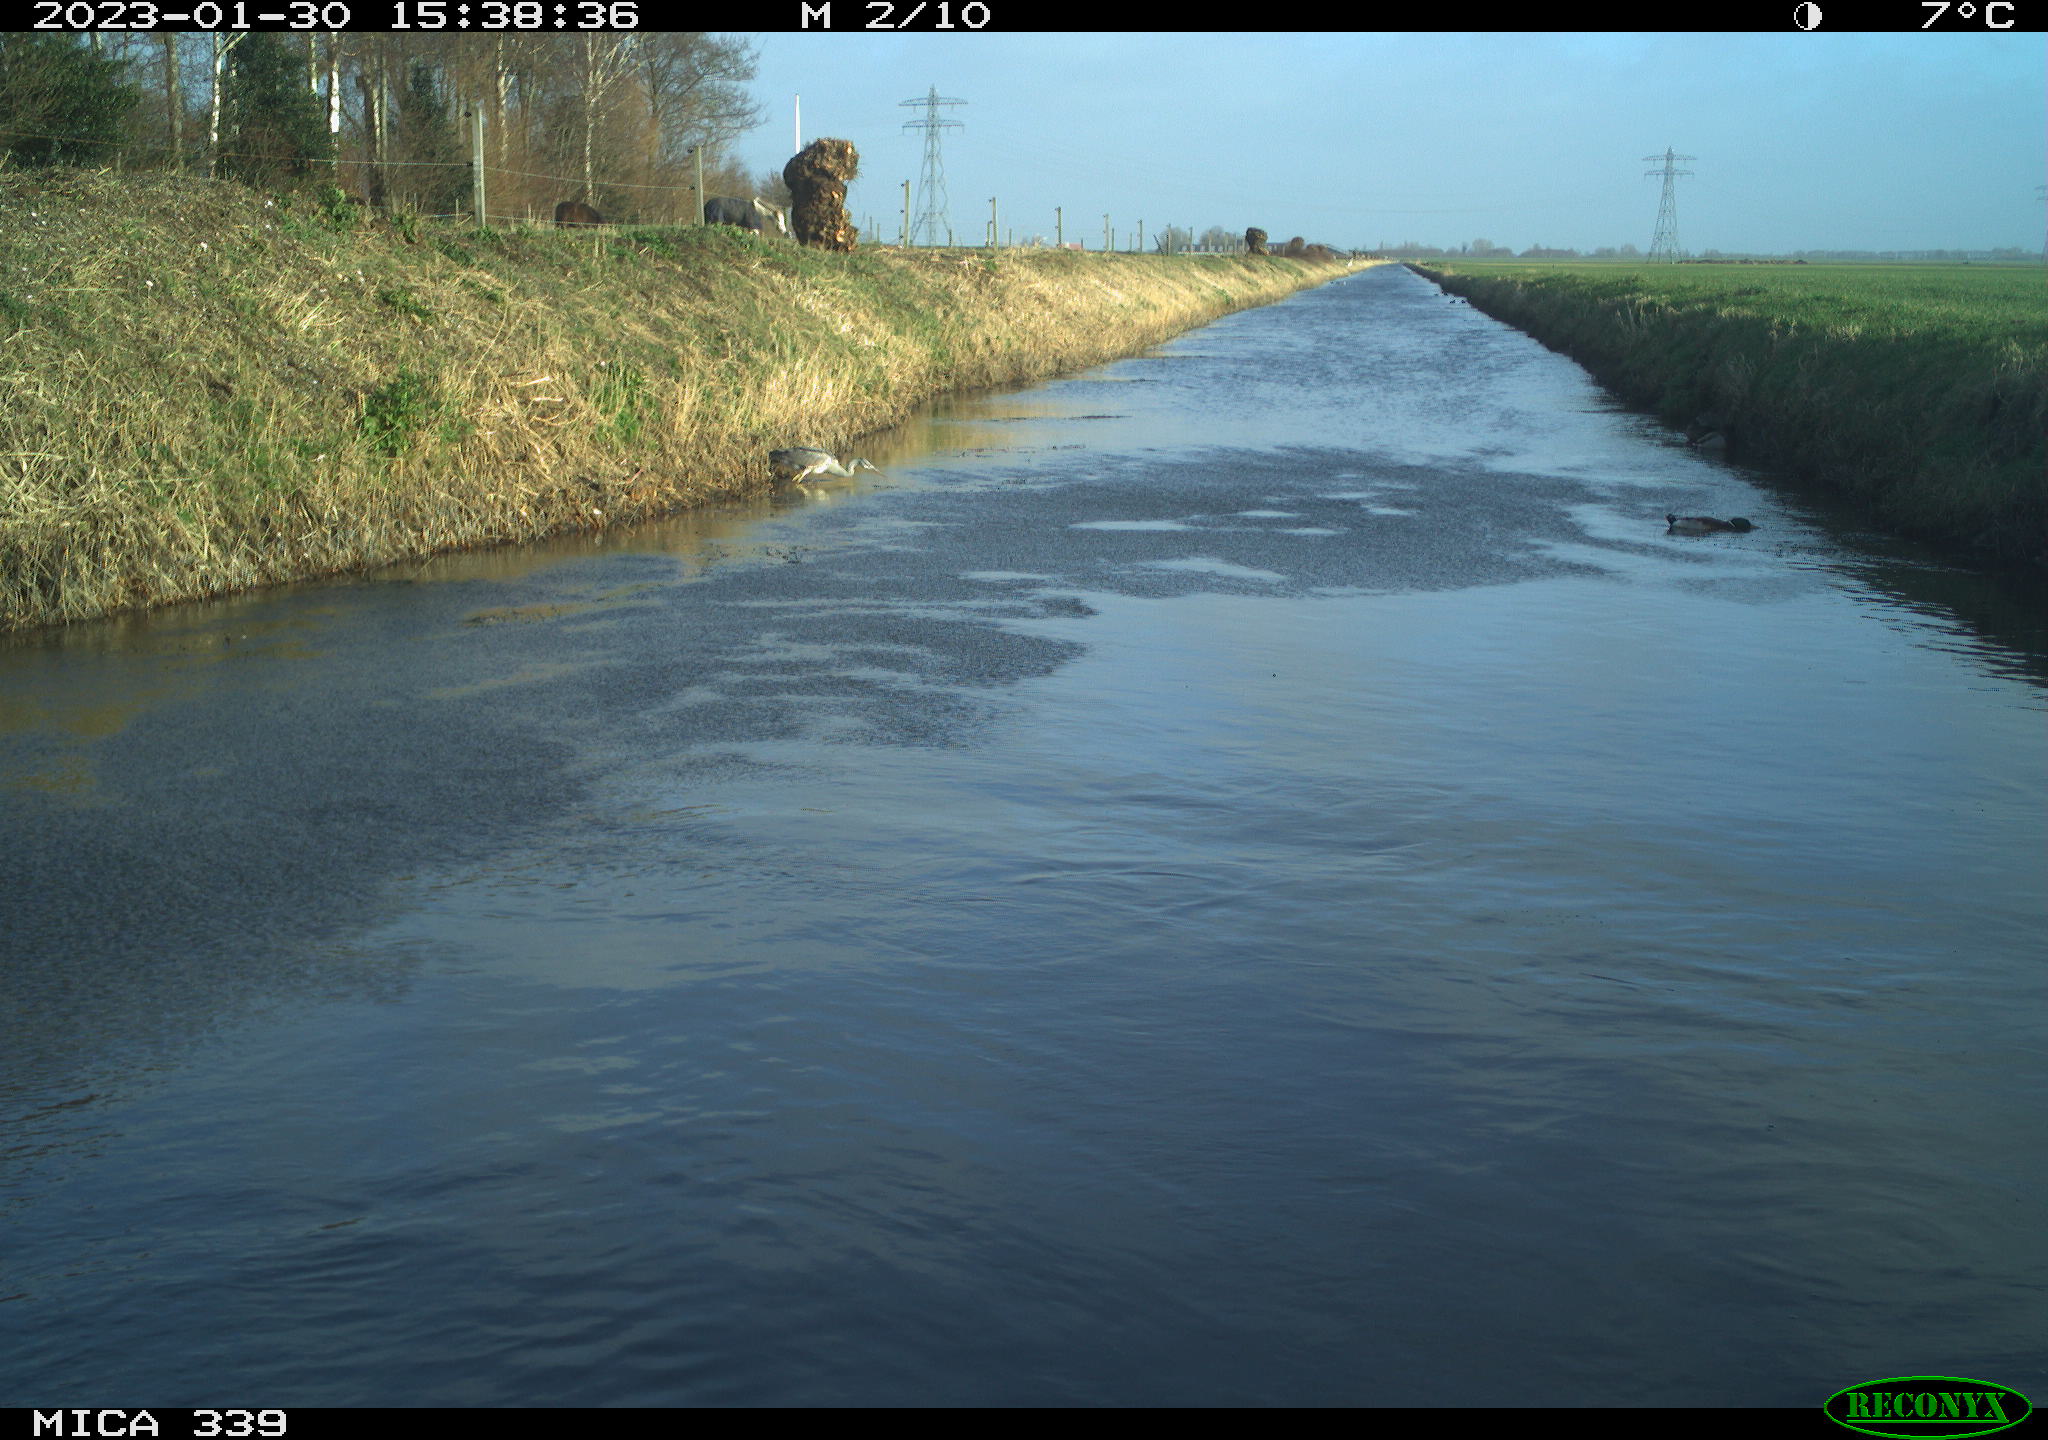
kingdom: Animalia
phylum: Chordata
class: Aves
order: Pelecaniformes
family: Ardeidae
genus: Ardea
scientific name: Ardea cinerea
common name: Grey heron
